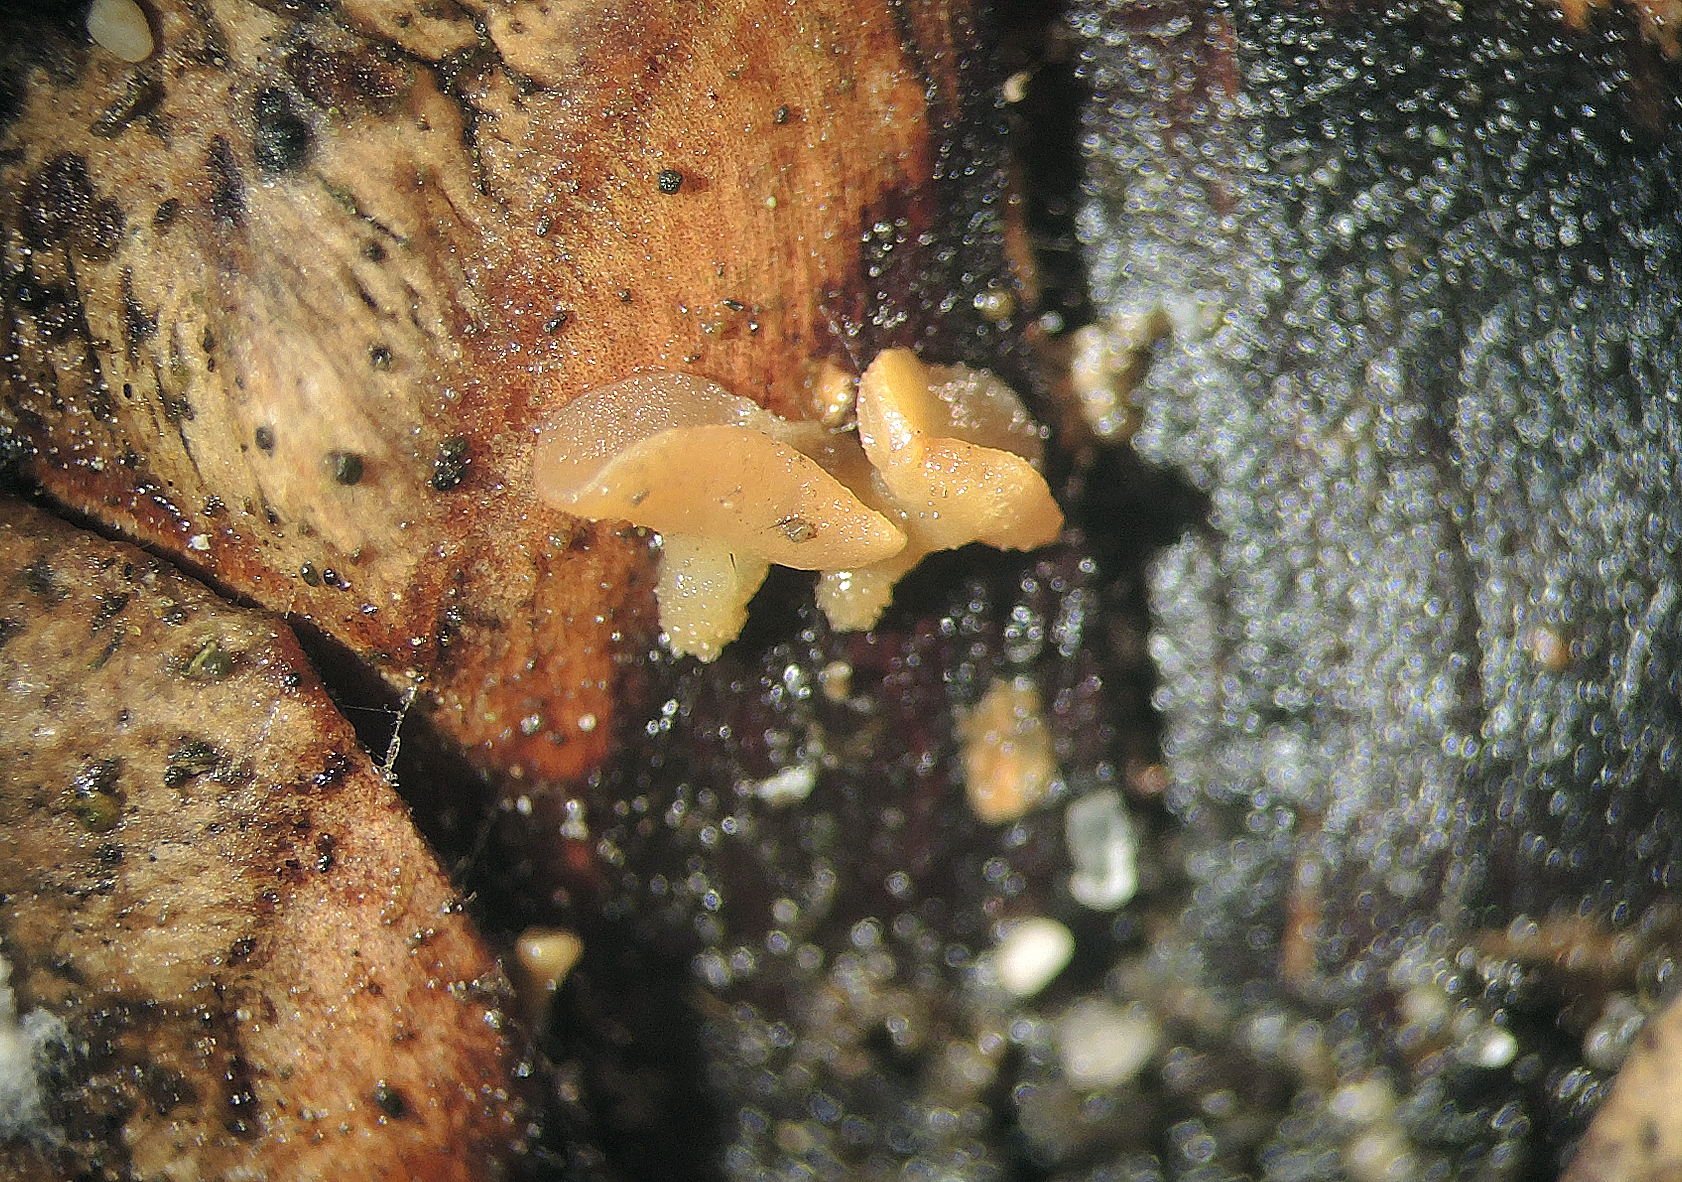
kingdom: Fungi
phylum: Ascomycota
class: Leotiomycetes
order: Helotiales
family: Helotiaceae
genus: Hymenoscyphus
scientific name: Hymenoscyphus lutescens
